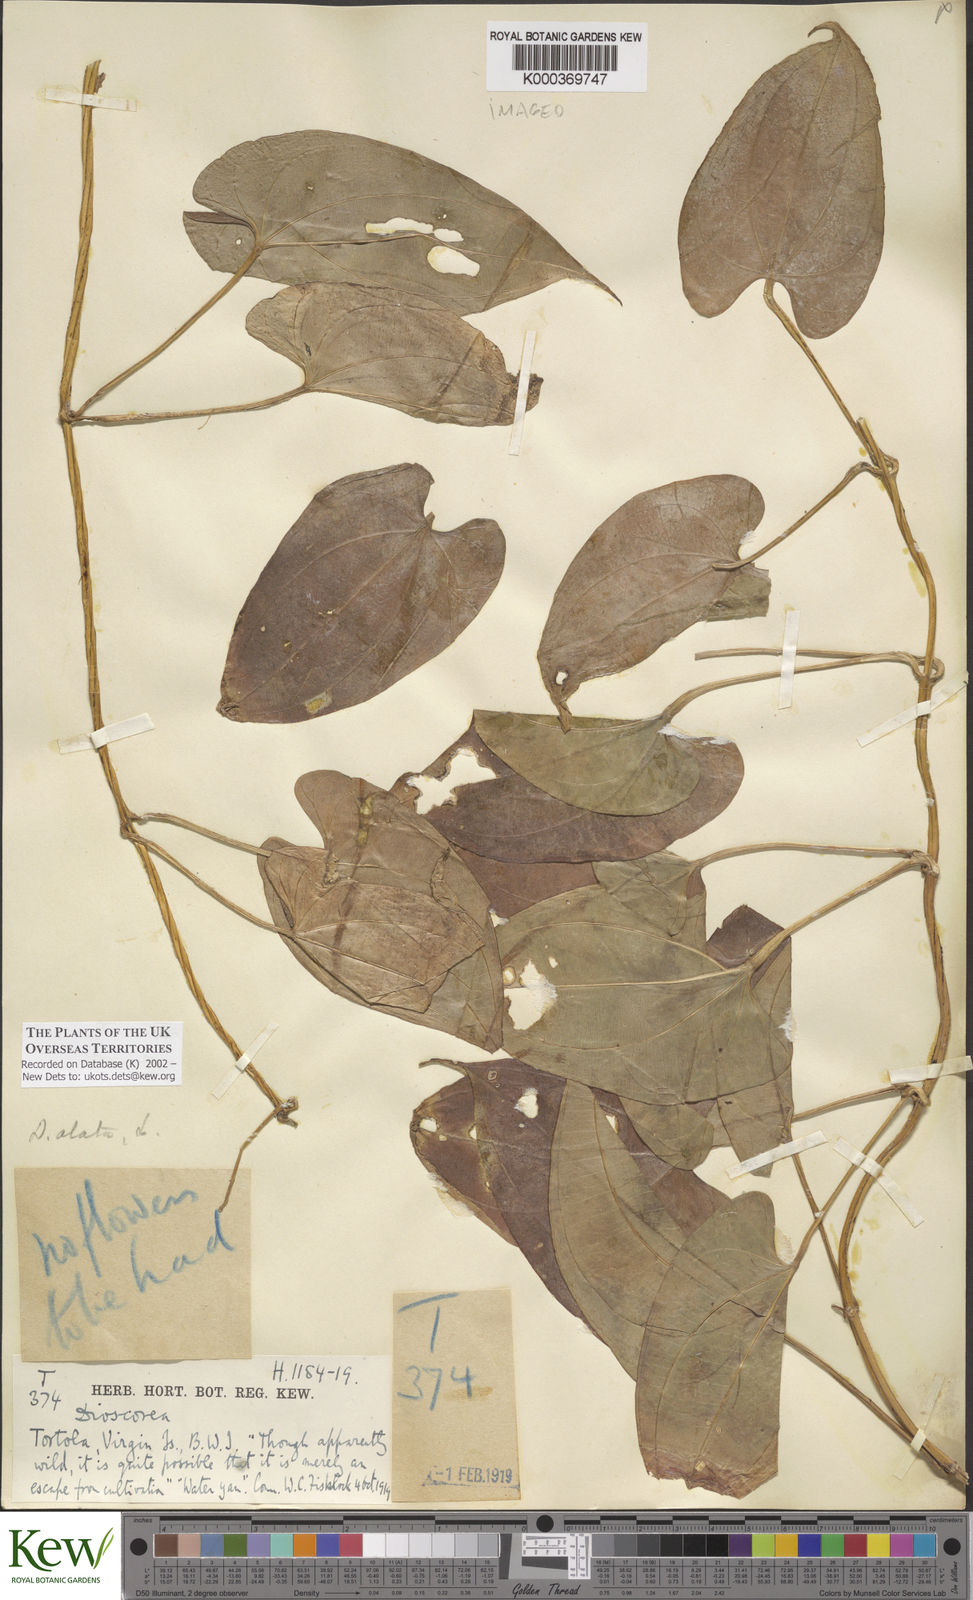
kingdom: Plantae
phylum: Tracheophyta
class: Liliopsida
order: Dioscoreales
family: Dioscoreaceae
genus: Dioscorea
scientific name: Dioscorea alata
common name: Water yam
